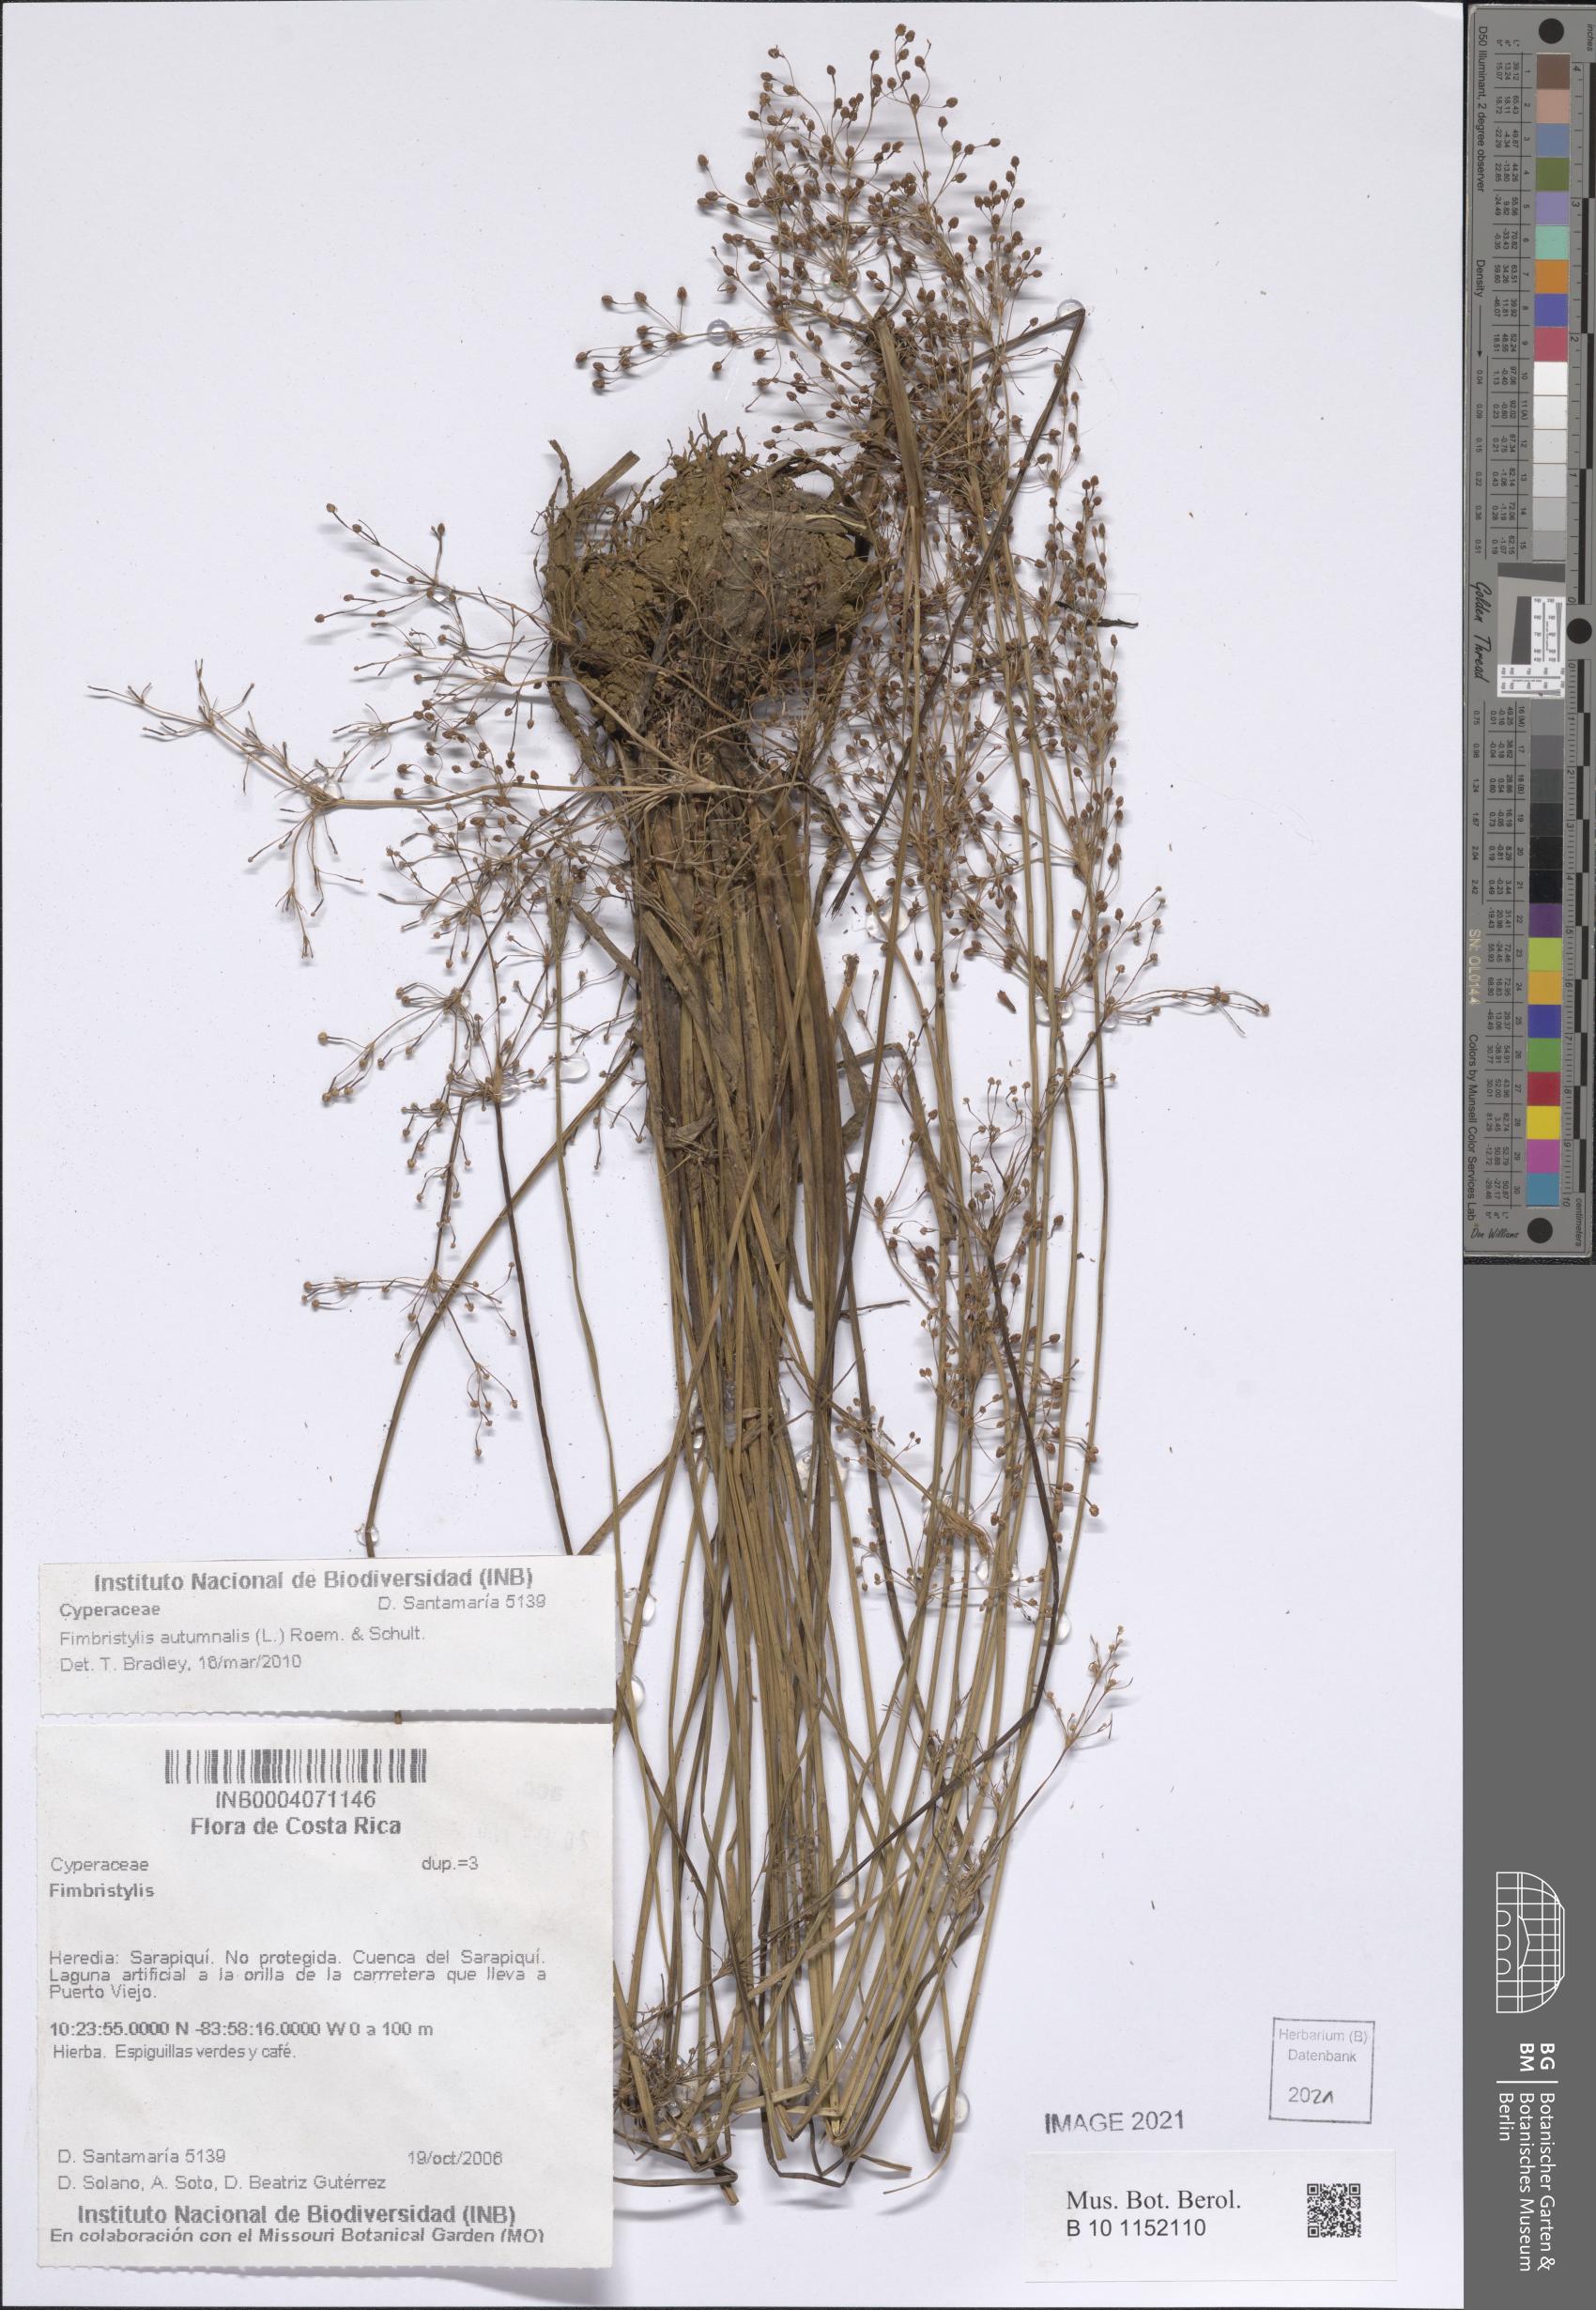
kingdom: Plantae
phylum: Tracheophyta
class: Liliopsida
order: Poales
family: Cyperaceae
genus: Fimbristylis
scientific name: Fimbristylis autumnalis
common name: Slender fimbristylis
